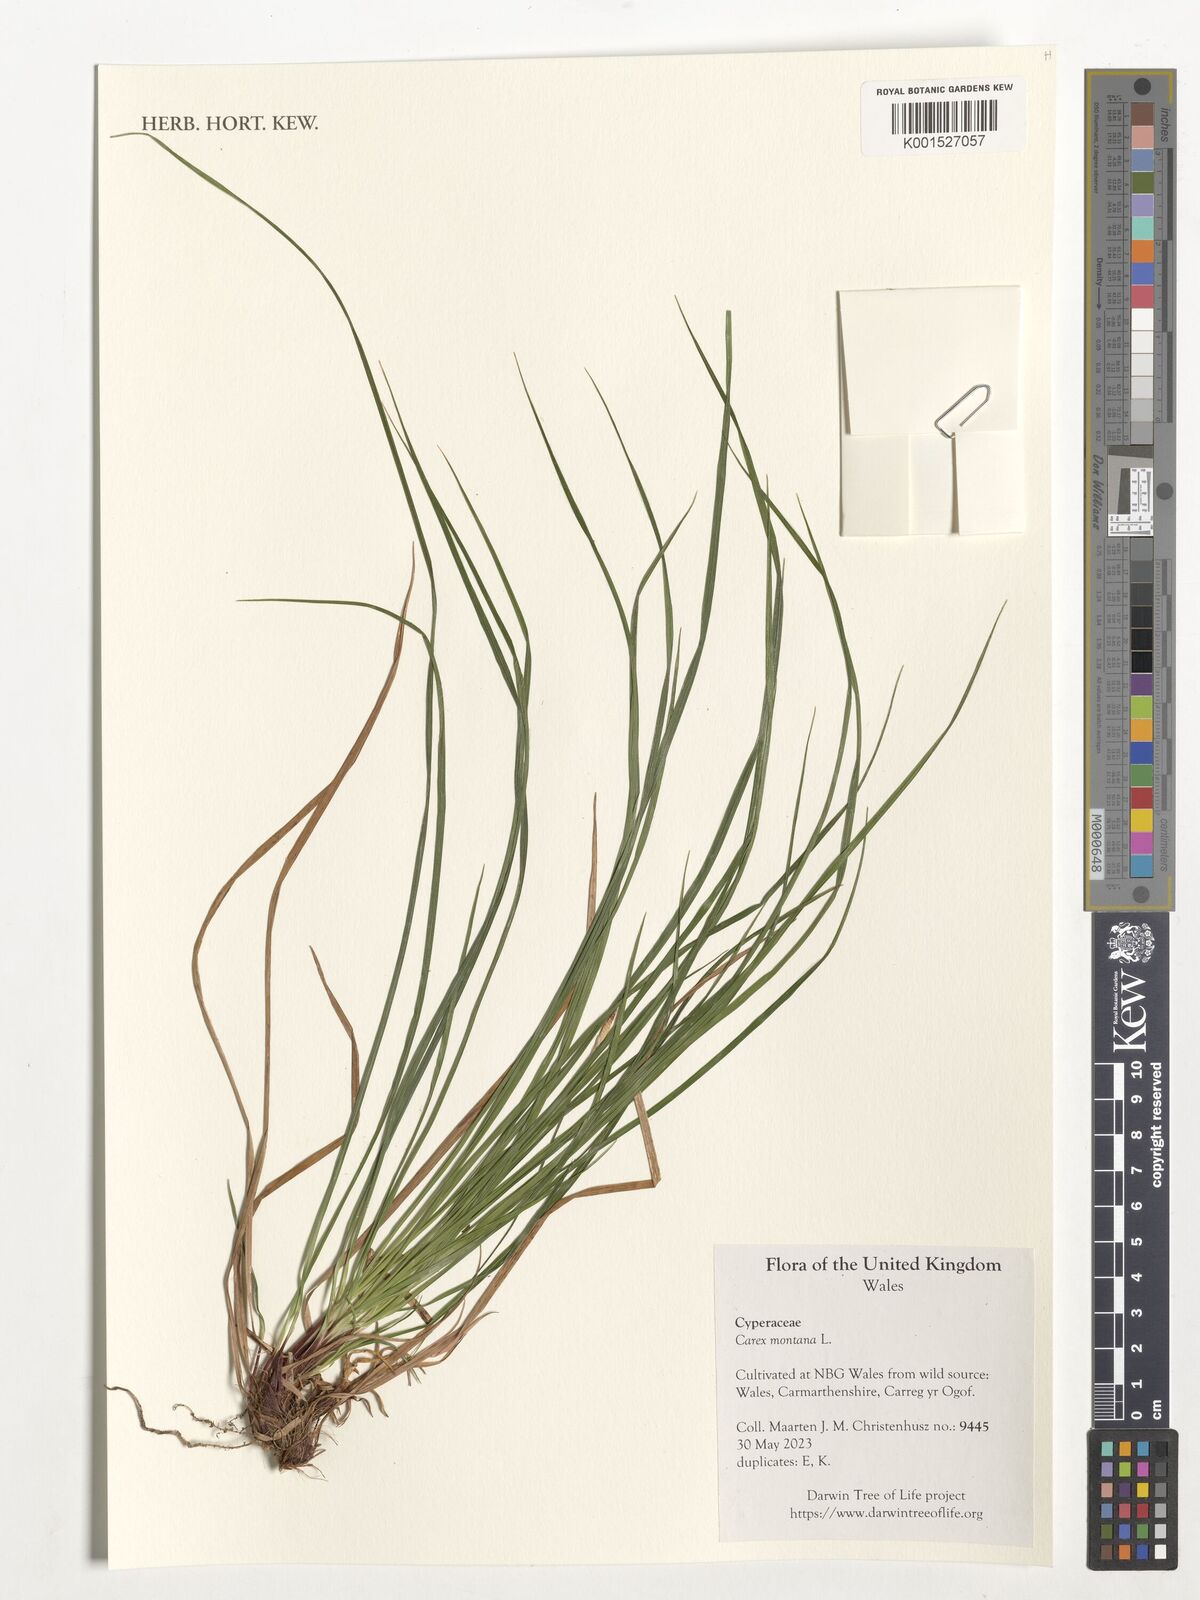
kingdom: Plantae
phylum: Tracheophyta
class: Liliopsida
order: Poales
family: Cyperaceae
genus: Carex
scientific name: Carex montana
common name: Soft-leaved sedge
